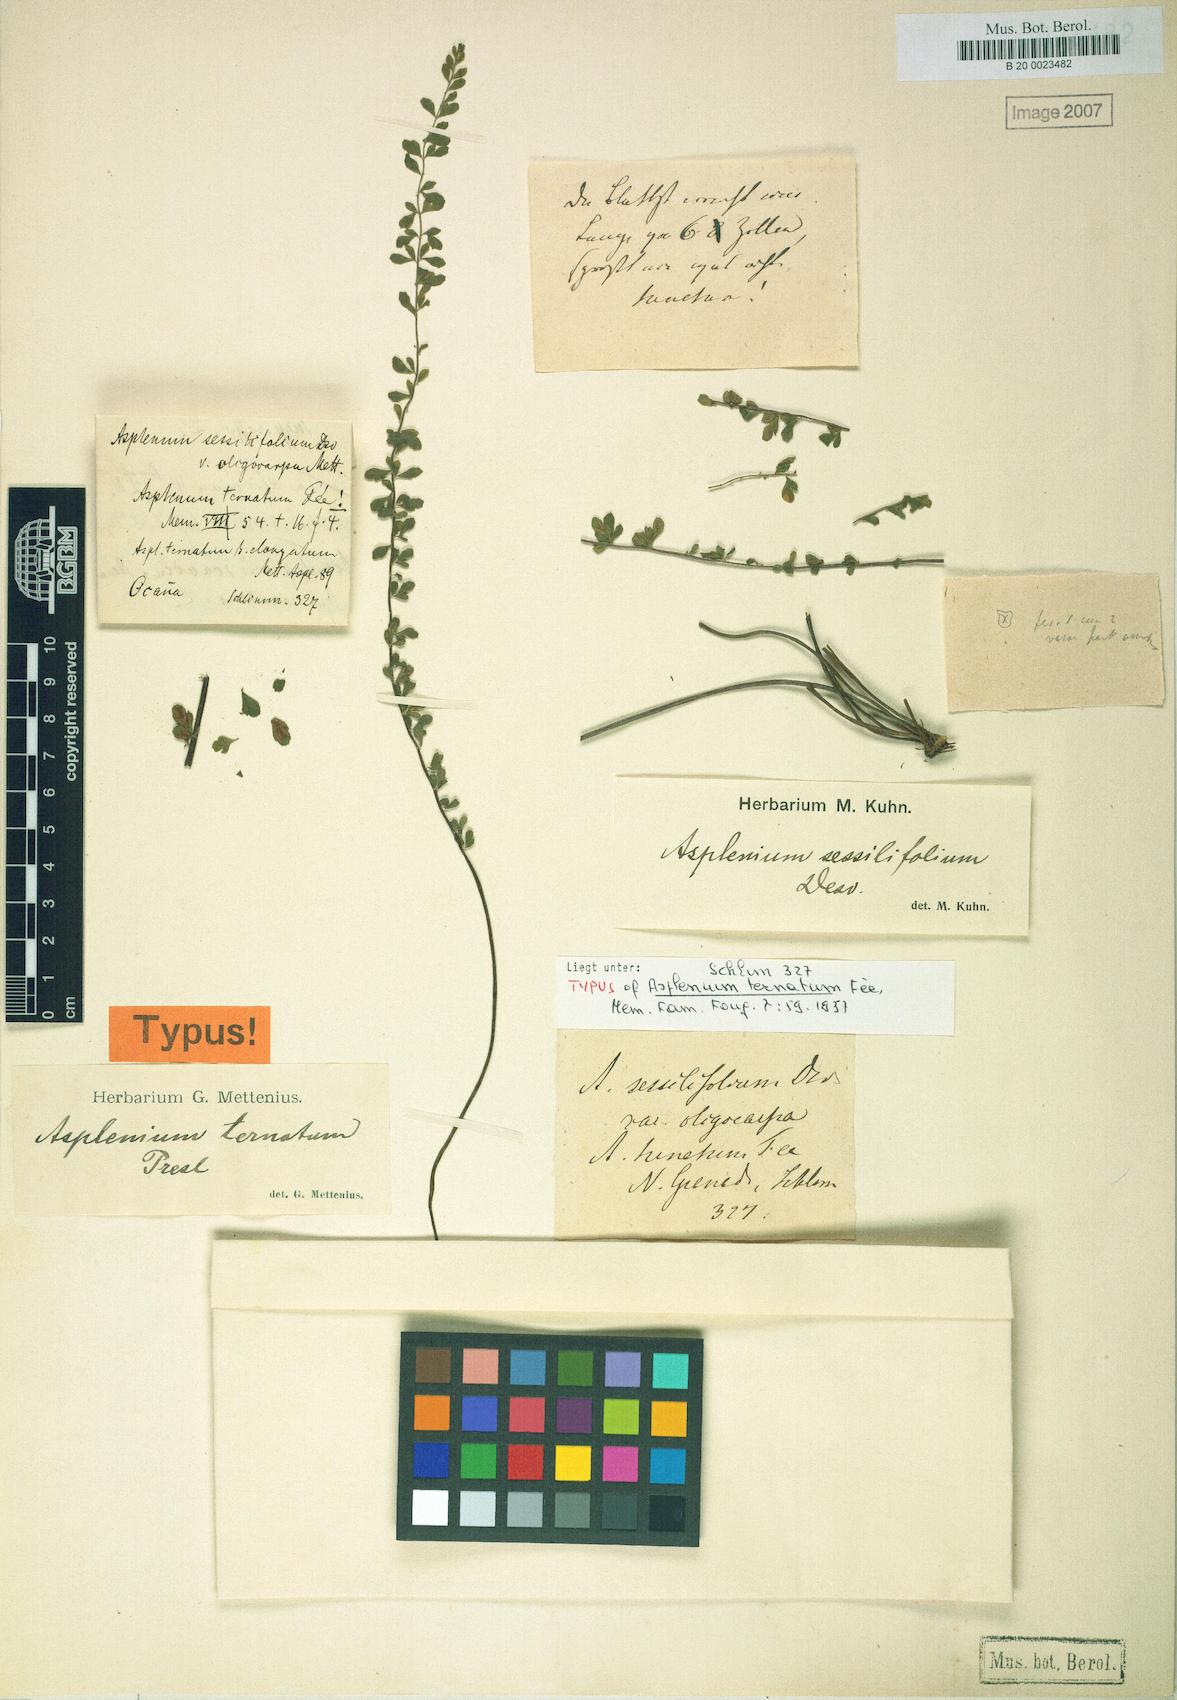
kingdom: Plantae
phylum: Tracheophyta
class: Polypodiopsida
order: Polypodiales
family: Aspleniaceae
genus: Asplenium
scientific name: Asplenium triphyllum
